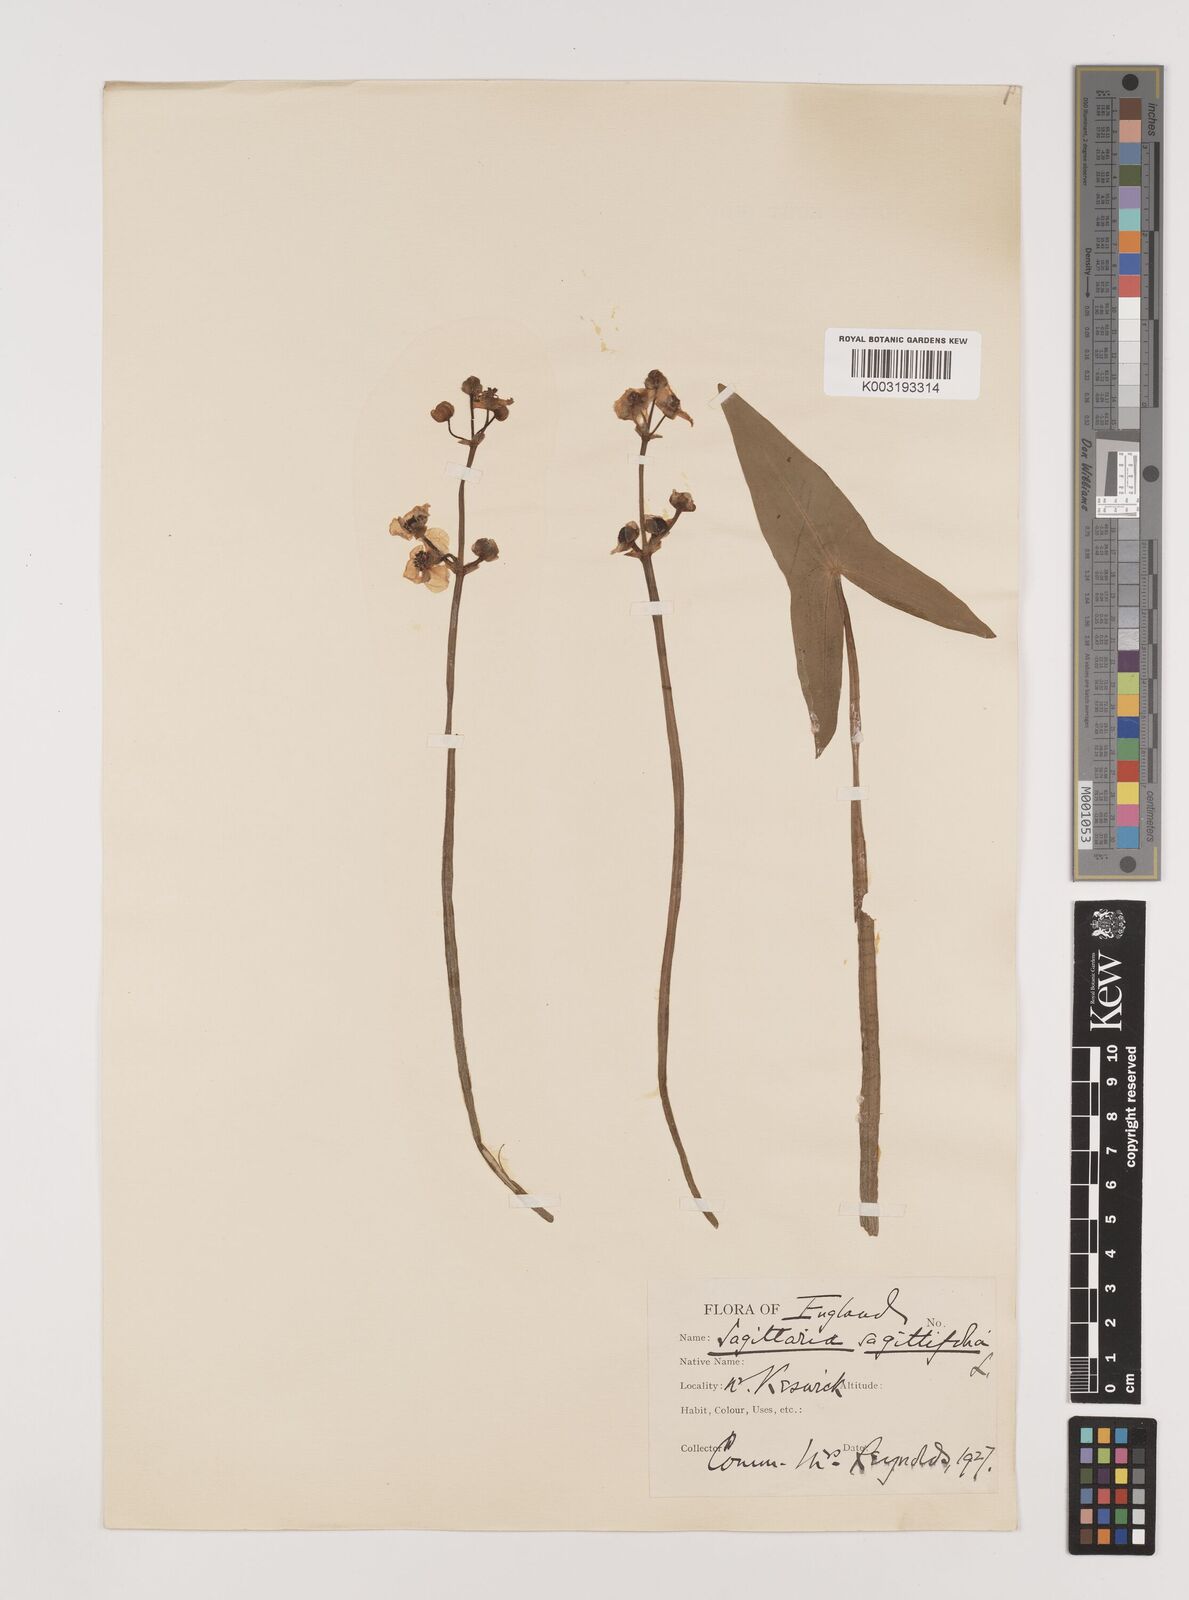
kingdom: Plantae
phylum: Tracheophyta
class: Liliopsida
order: Alismatales
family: Alismataceae
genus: Sagittaria
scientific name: Sagittaria sagittifolia
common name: Arrowhead
